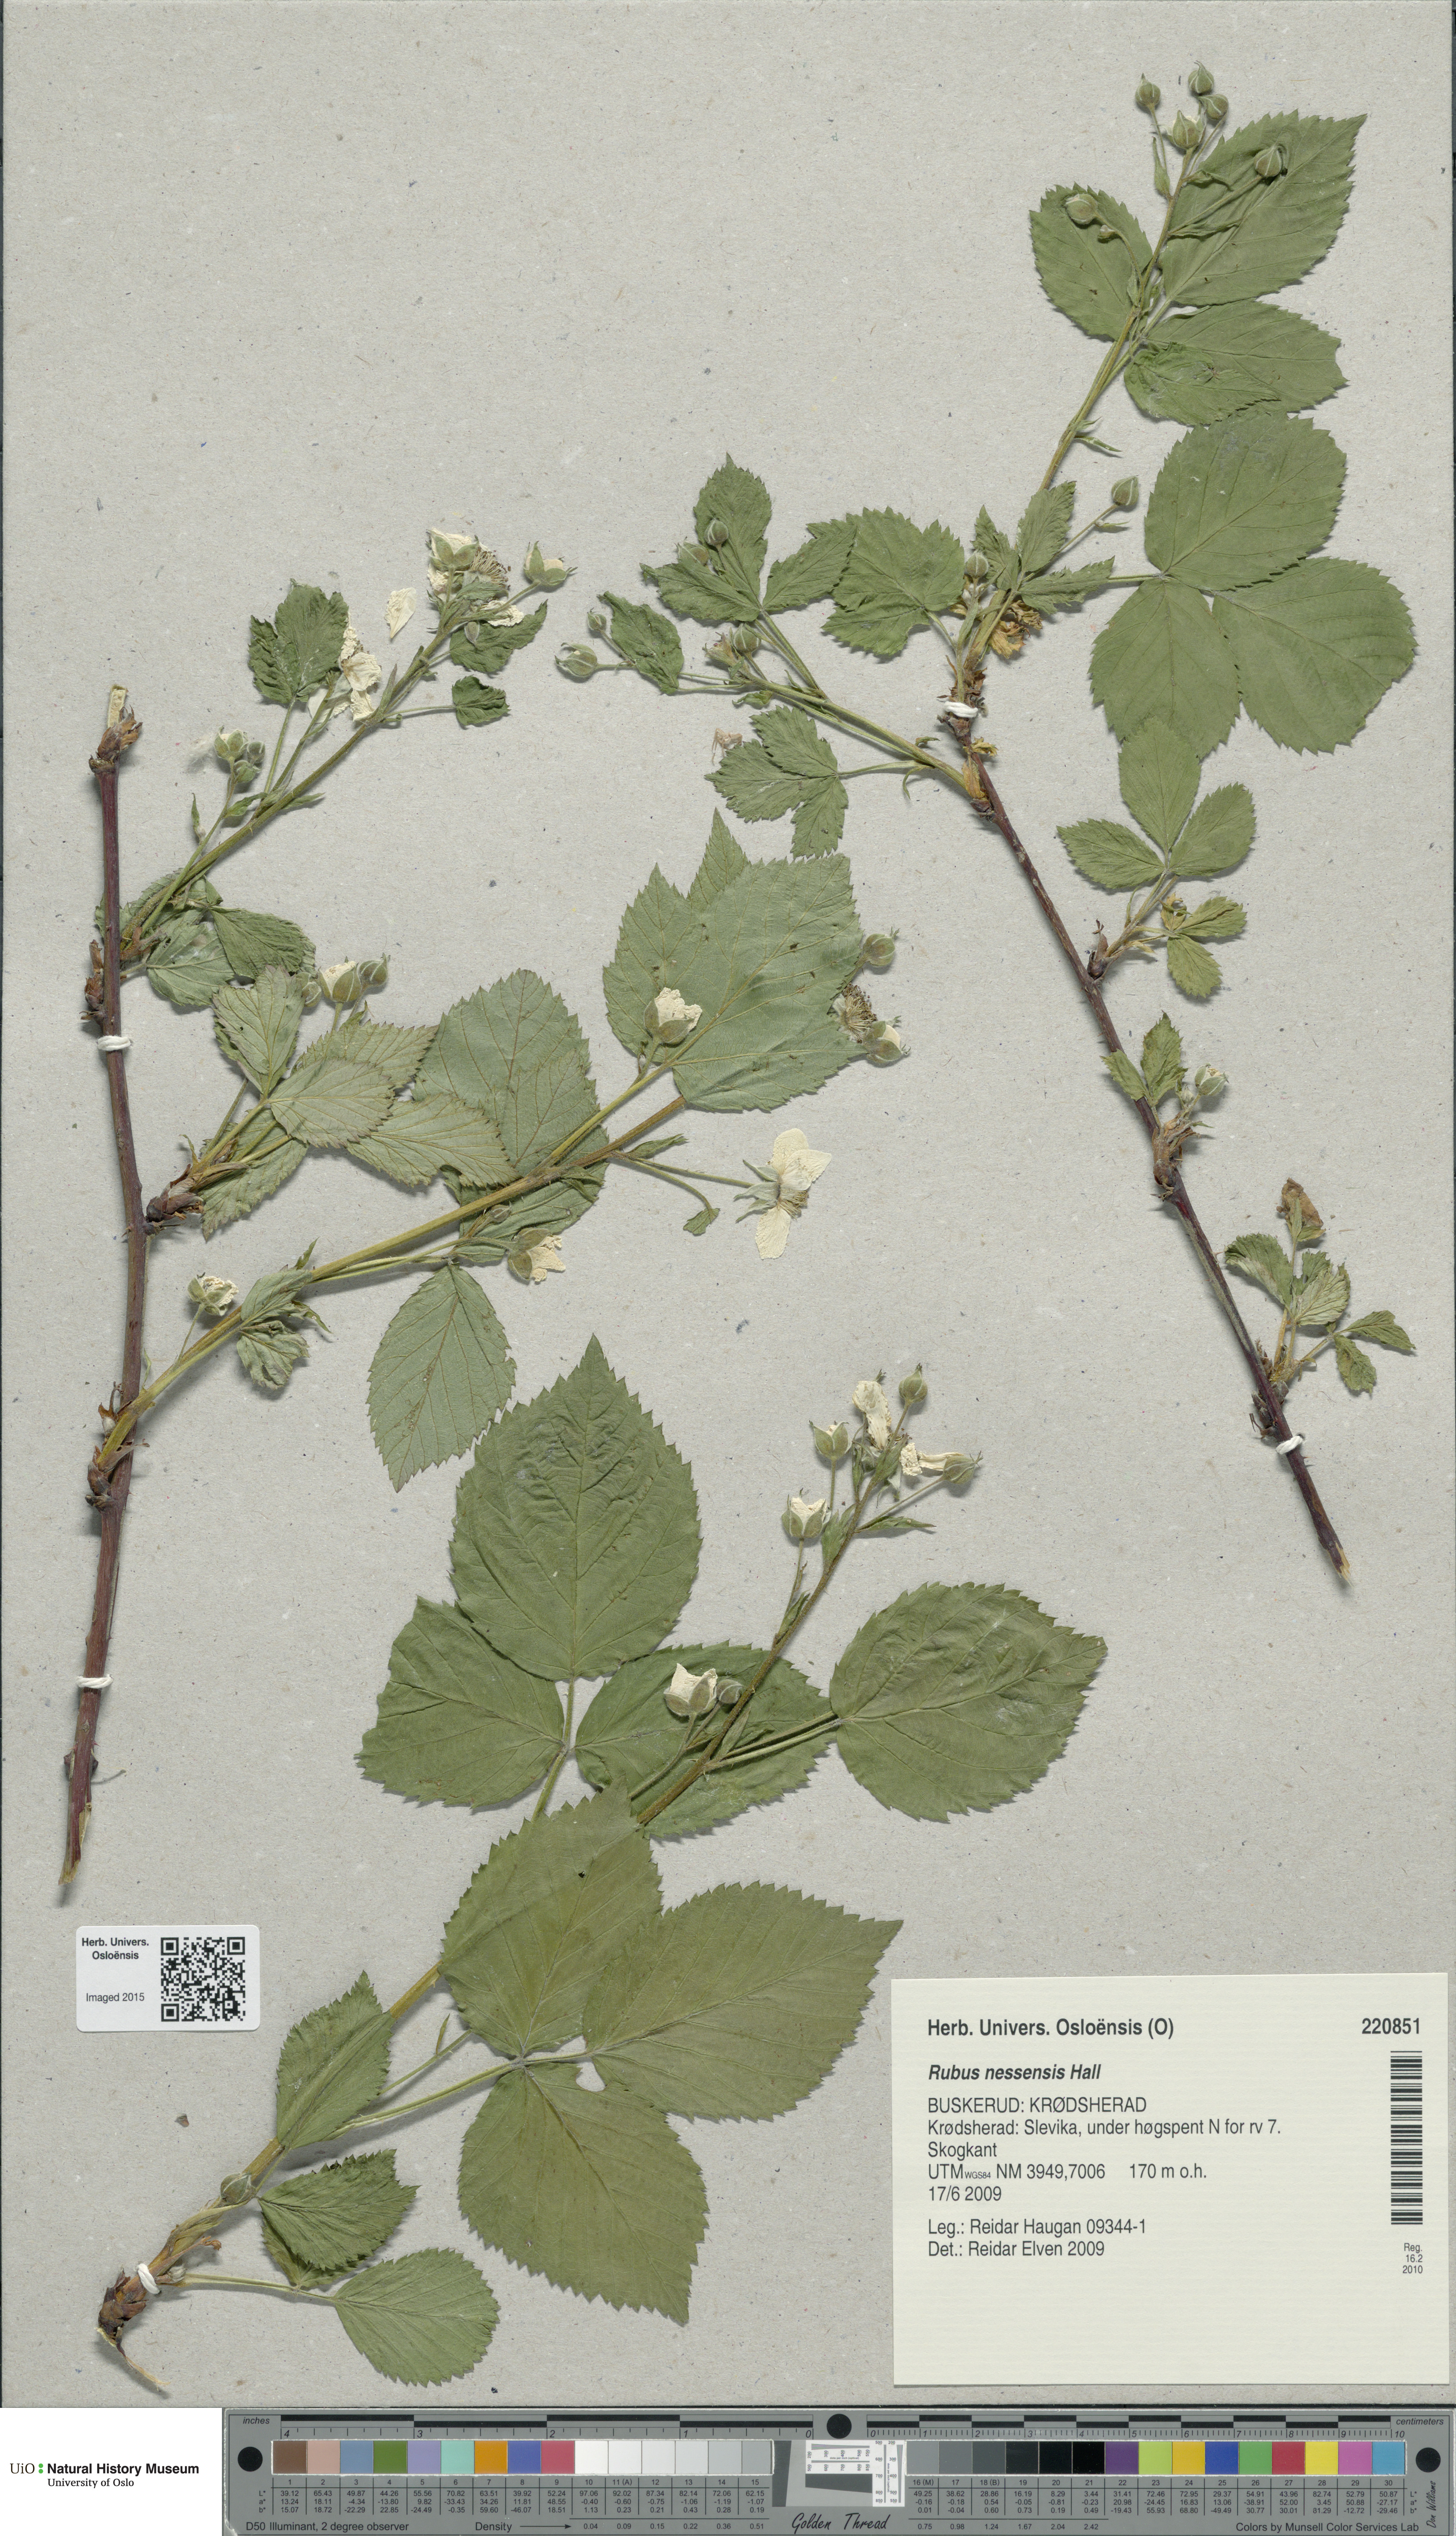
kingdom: Plantae
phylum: Tracheophyta
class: Magnoliopsida
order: Rosales
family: Rosaceae
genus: Rubus
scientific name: Rubus polonicus
